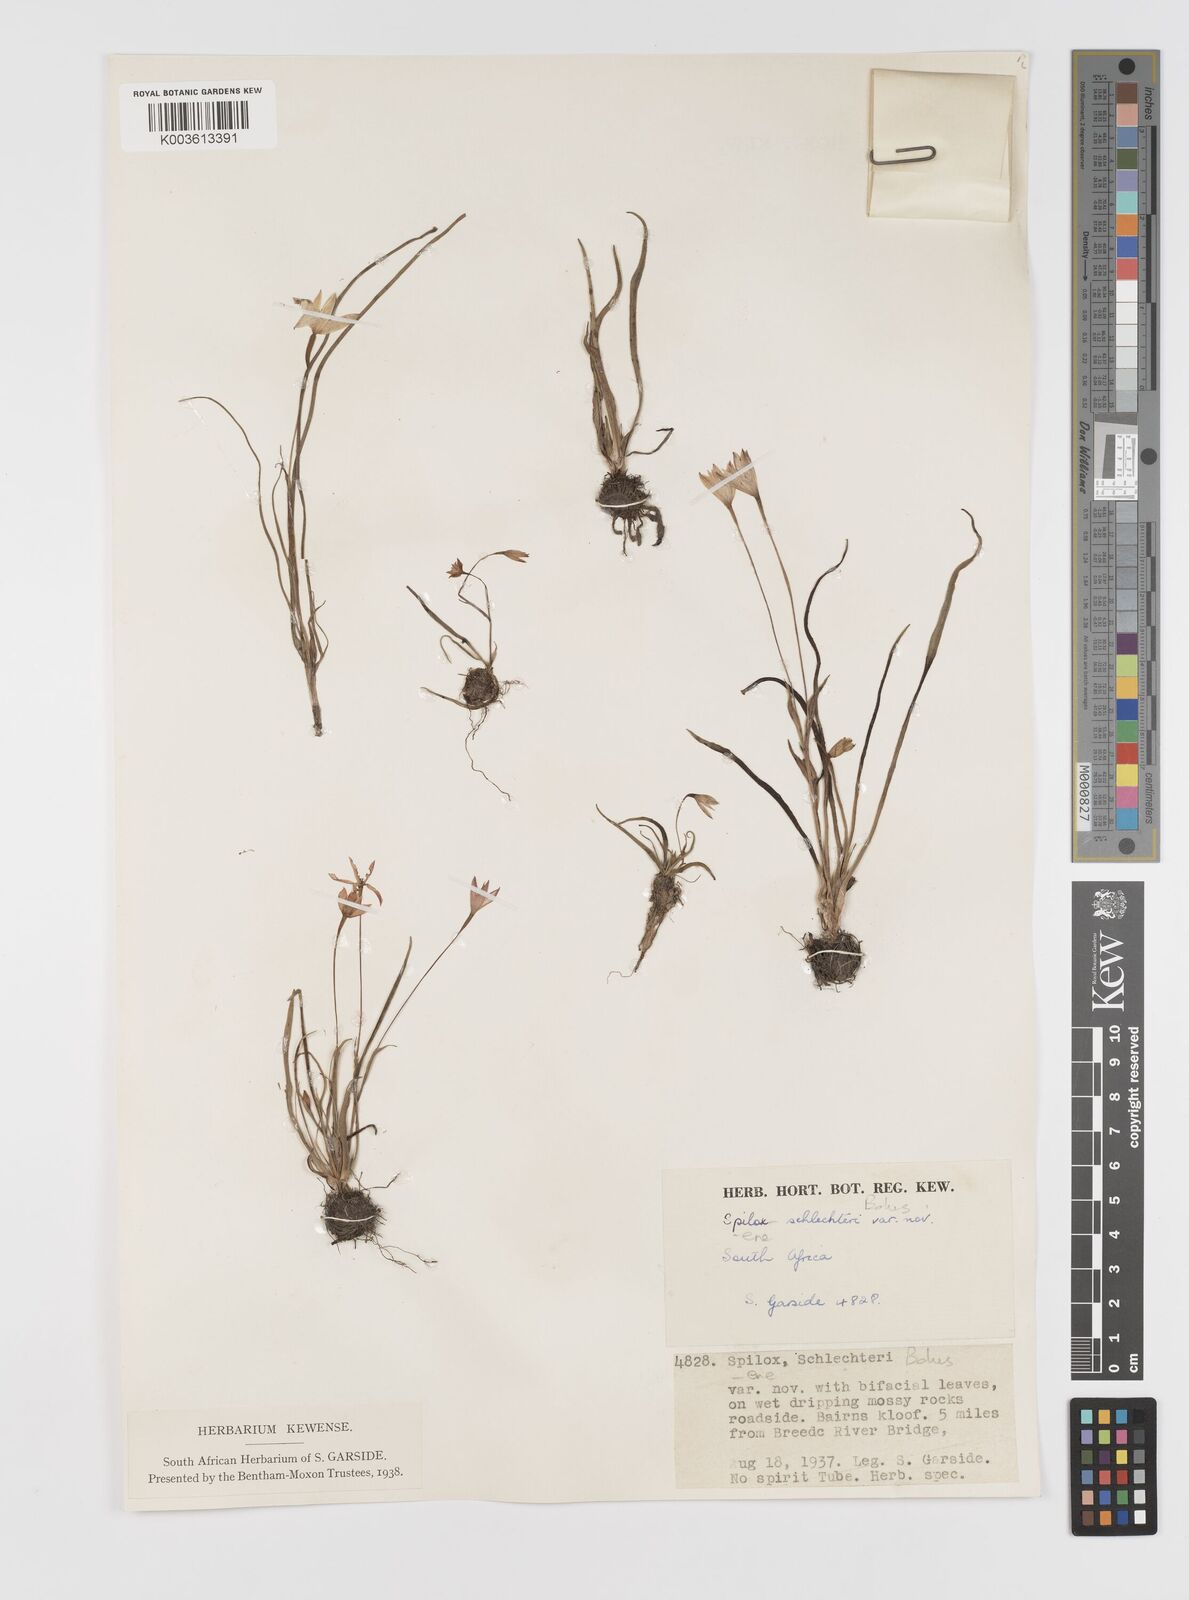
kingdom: Plantae
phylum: Tracheophyta
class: Liliopsida
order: Asparagales
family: Hypoxidaceae
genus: Pauridia
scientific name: Pauridia affinis
